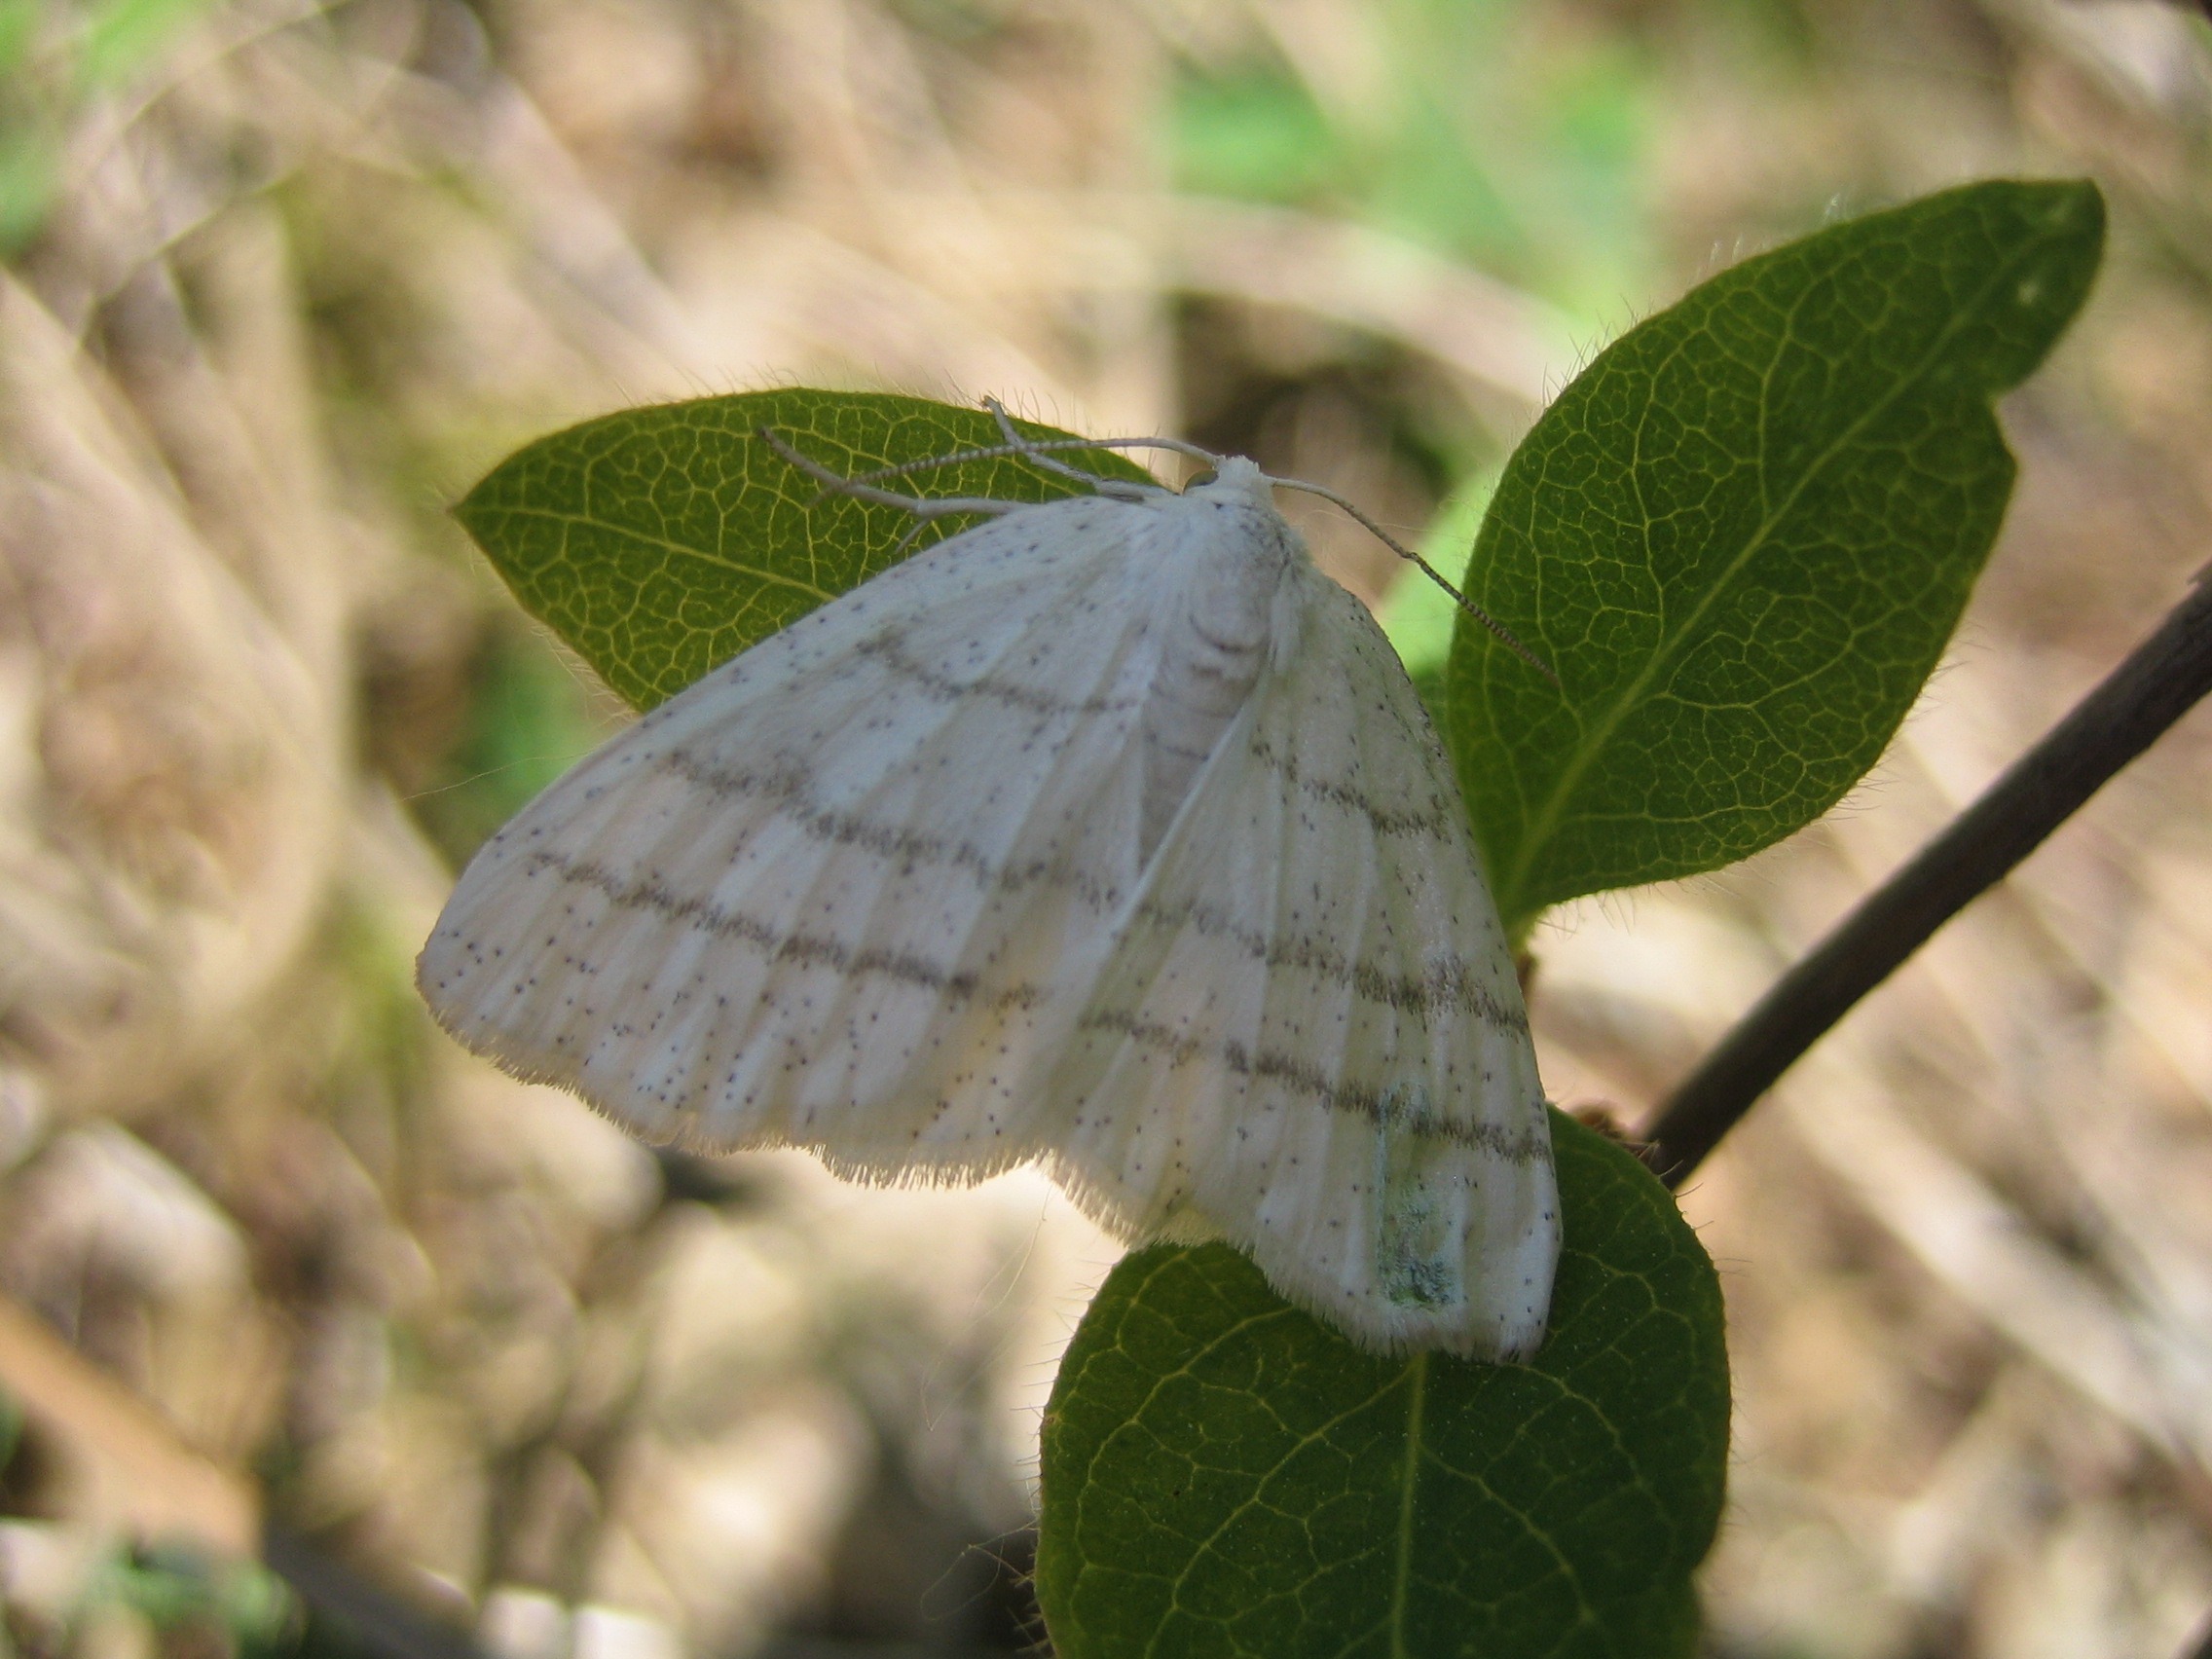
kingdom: Animalia
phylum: Arthropoda
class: Insecta
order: Lepidoptera
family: Geometridae
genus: Cabera
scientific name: Cabera pusaria
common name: Snehvid stregmåler
